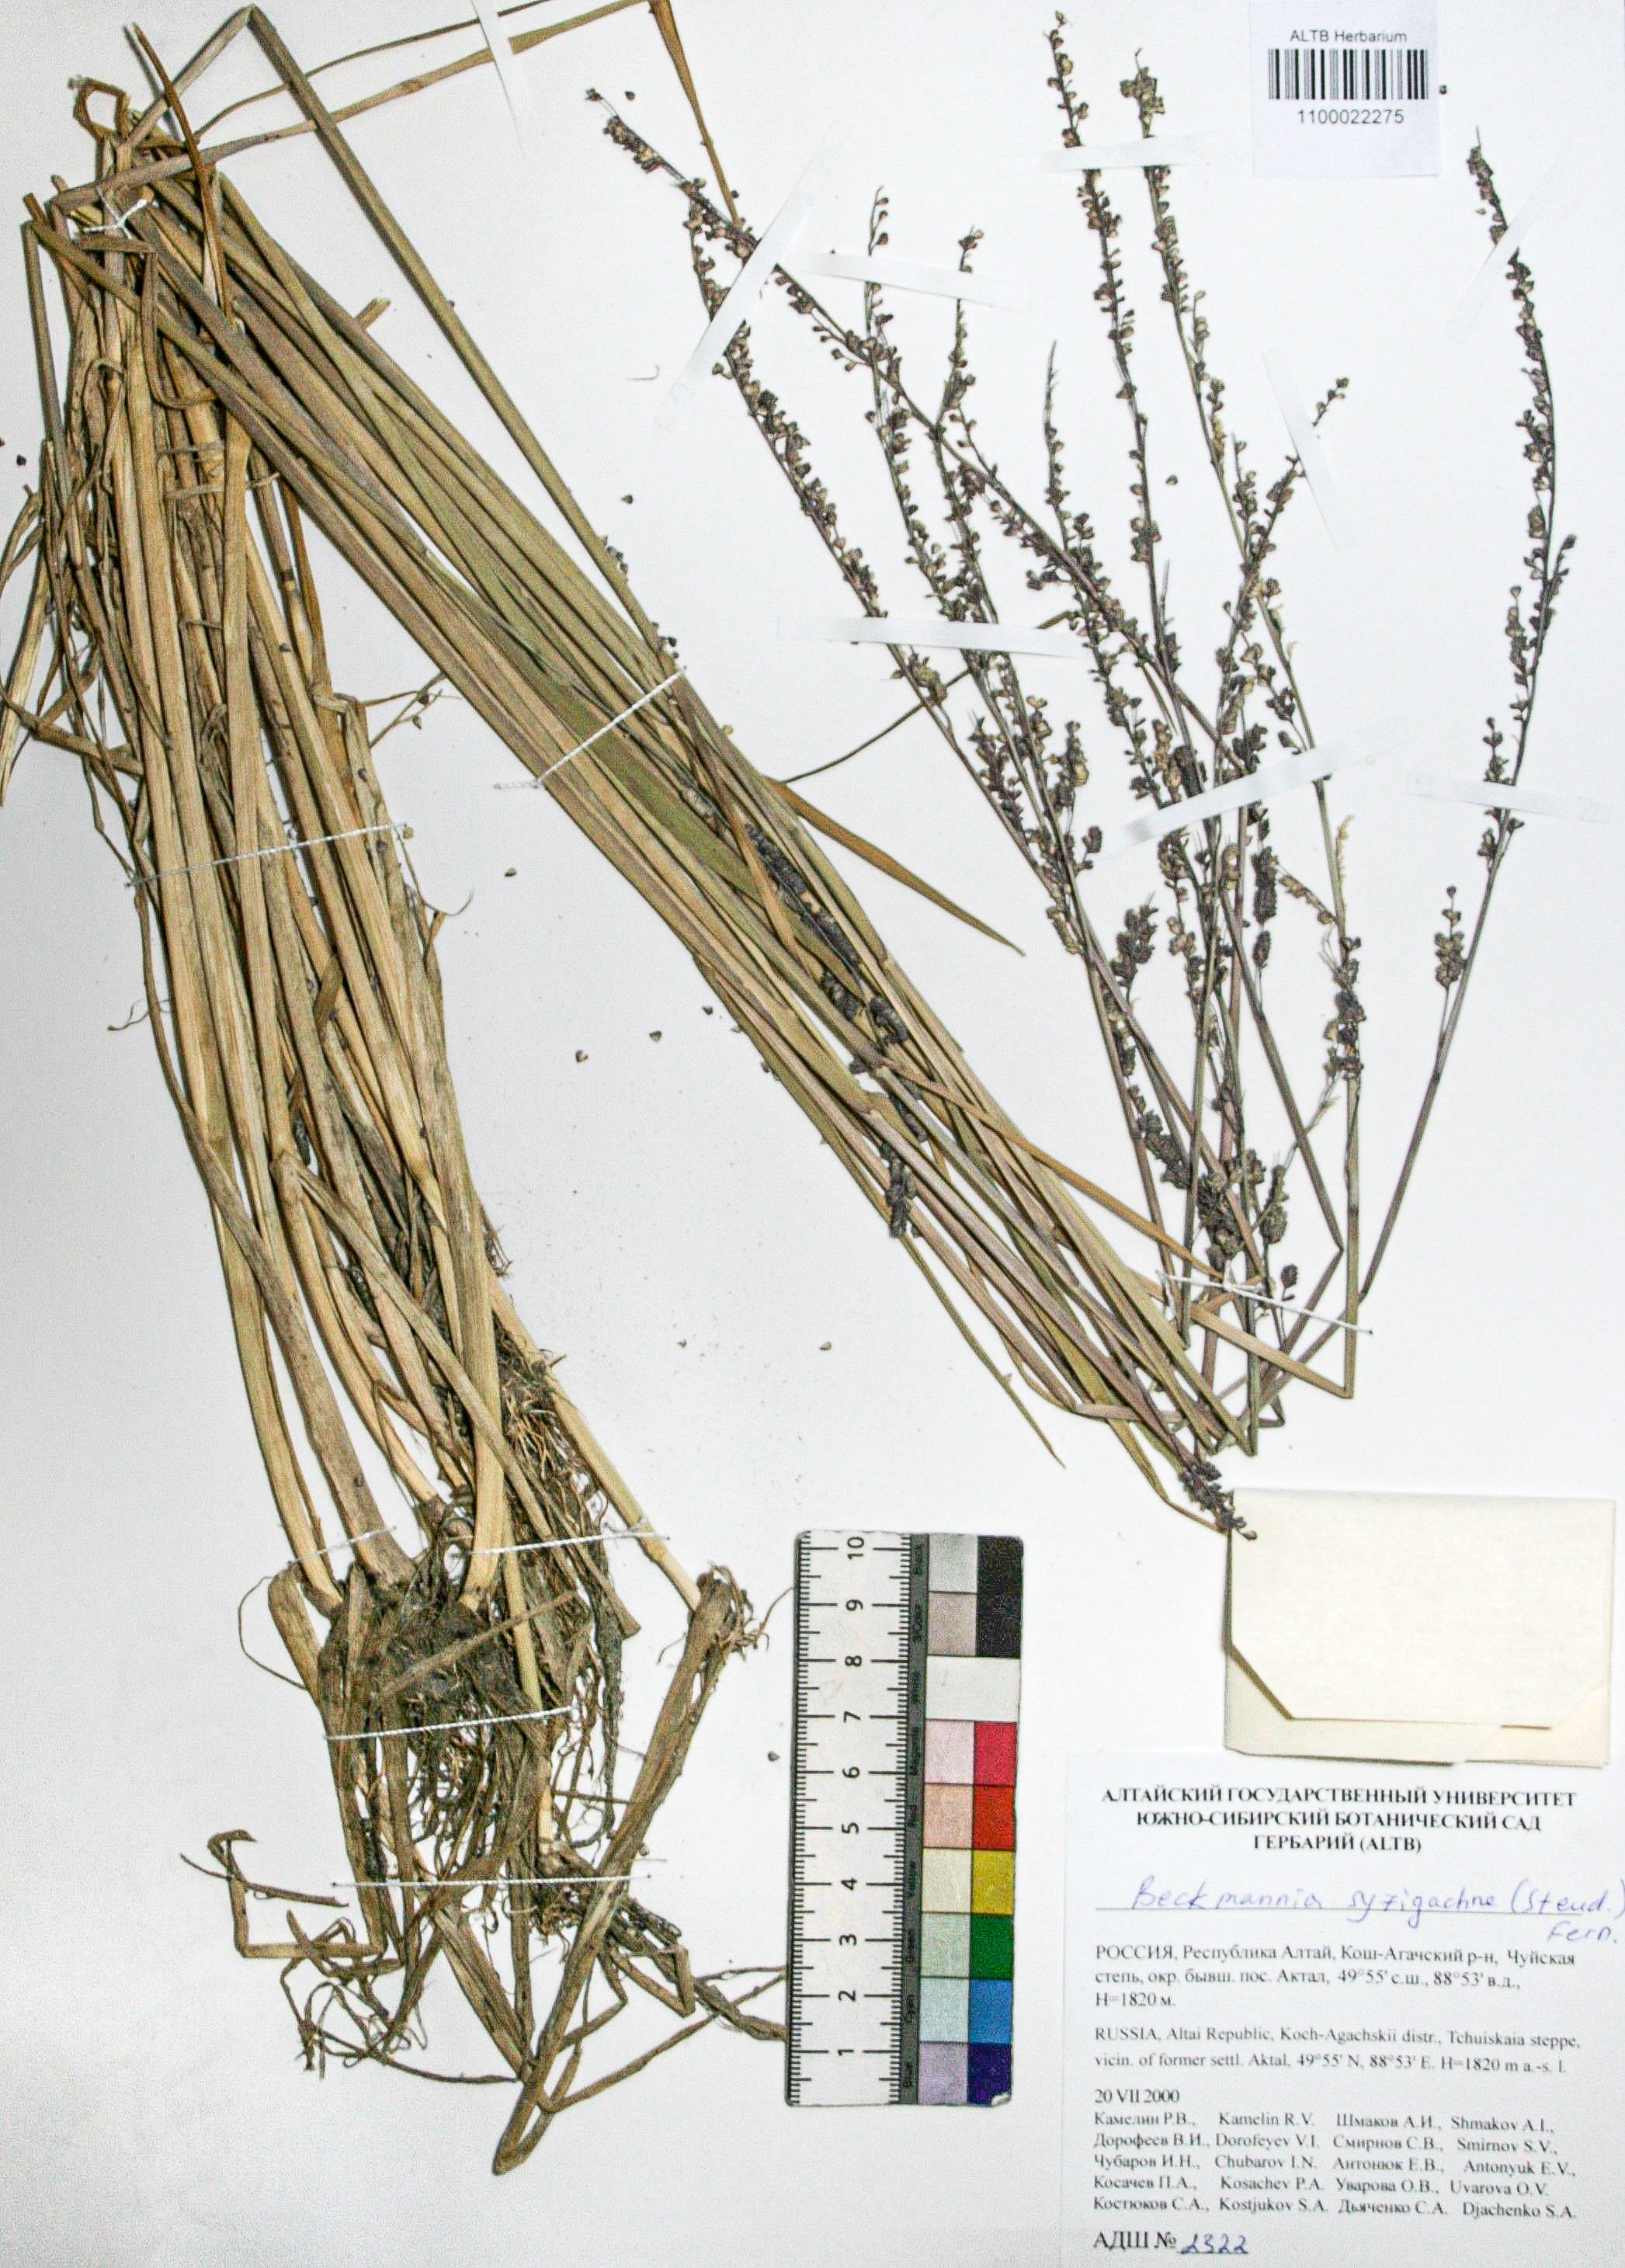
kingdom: Plantae
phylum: Tracheophyta
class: Liliopsida
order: Poales
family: Poaceae
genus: Beckmannia
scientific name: Beckmannia syzigachne
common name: American slough-grass
